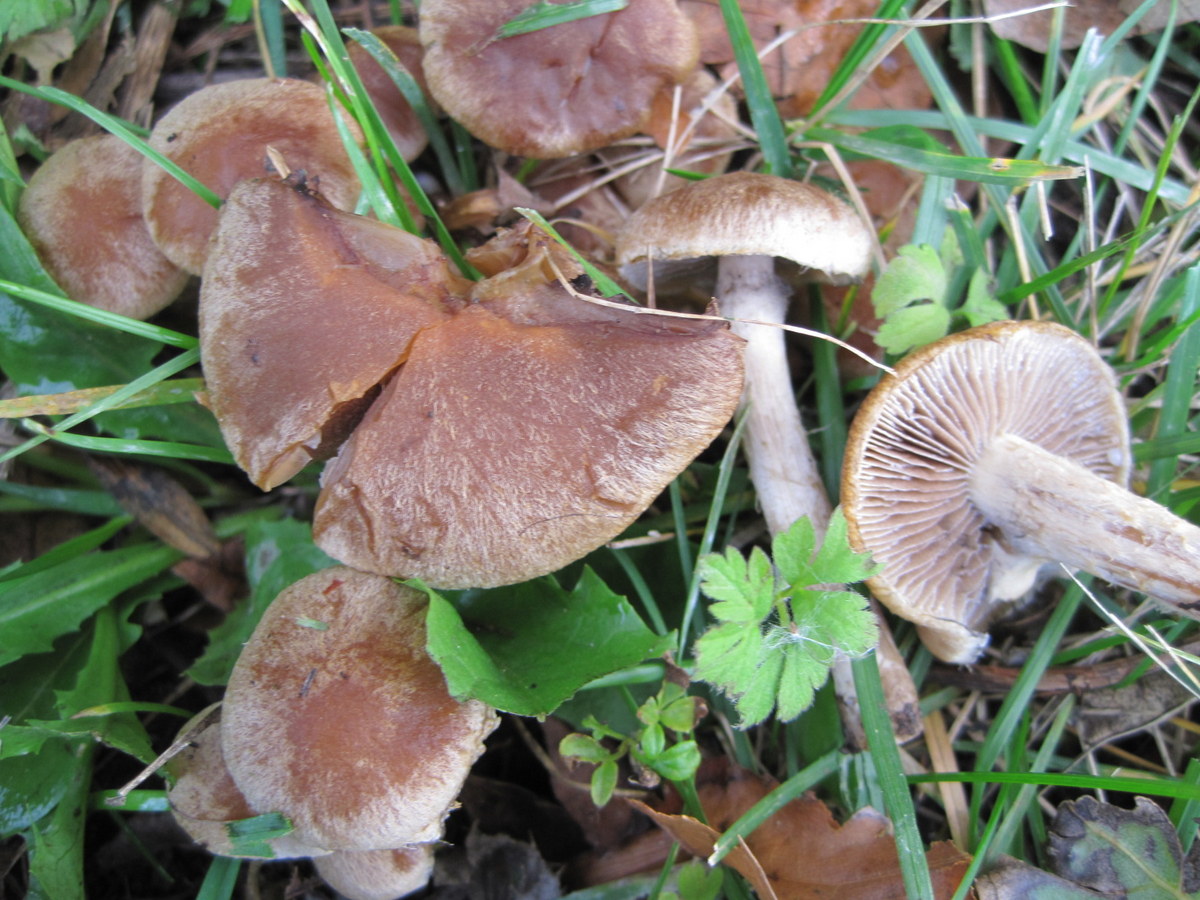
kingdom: Fungi
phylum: Basidiomycota
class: Agaricomycetes
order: Agaricales
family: Hymenogastraceae
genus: Hebeloma
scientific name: Hebeloma mesophaeum
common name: lerbrun tåreblad
